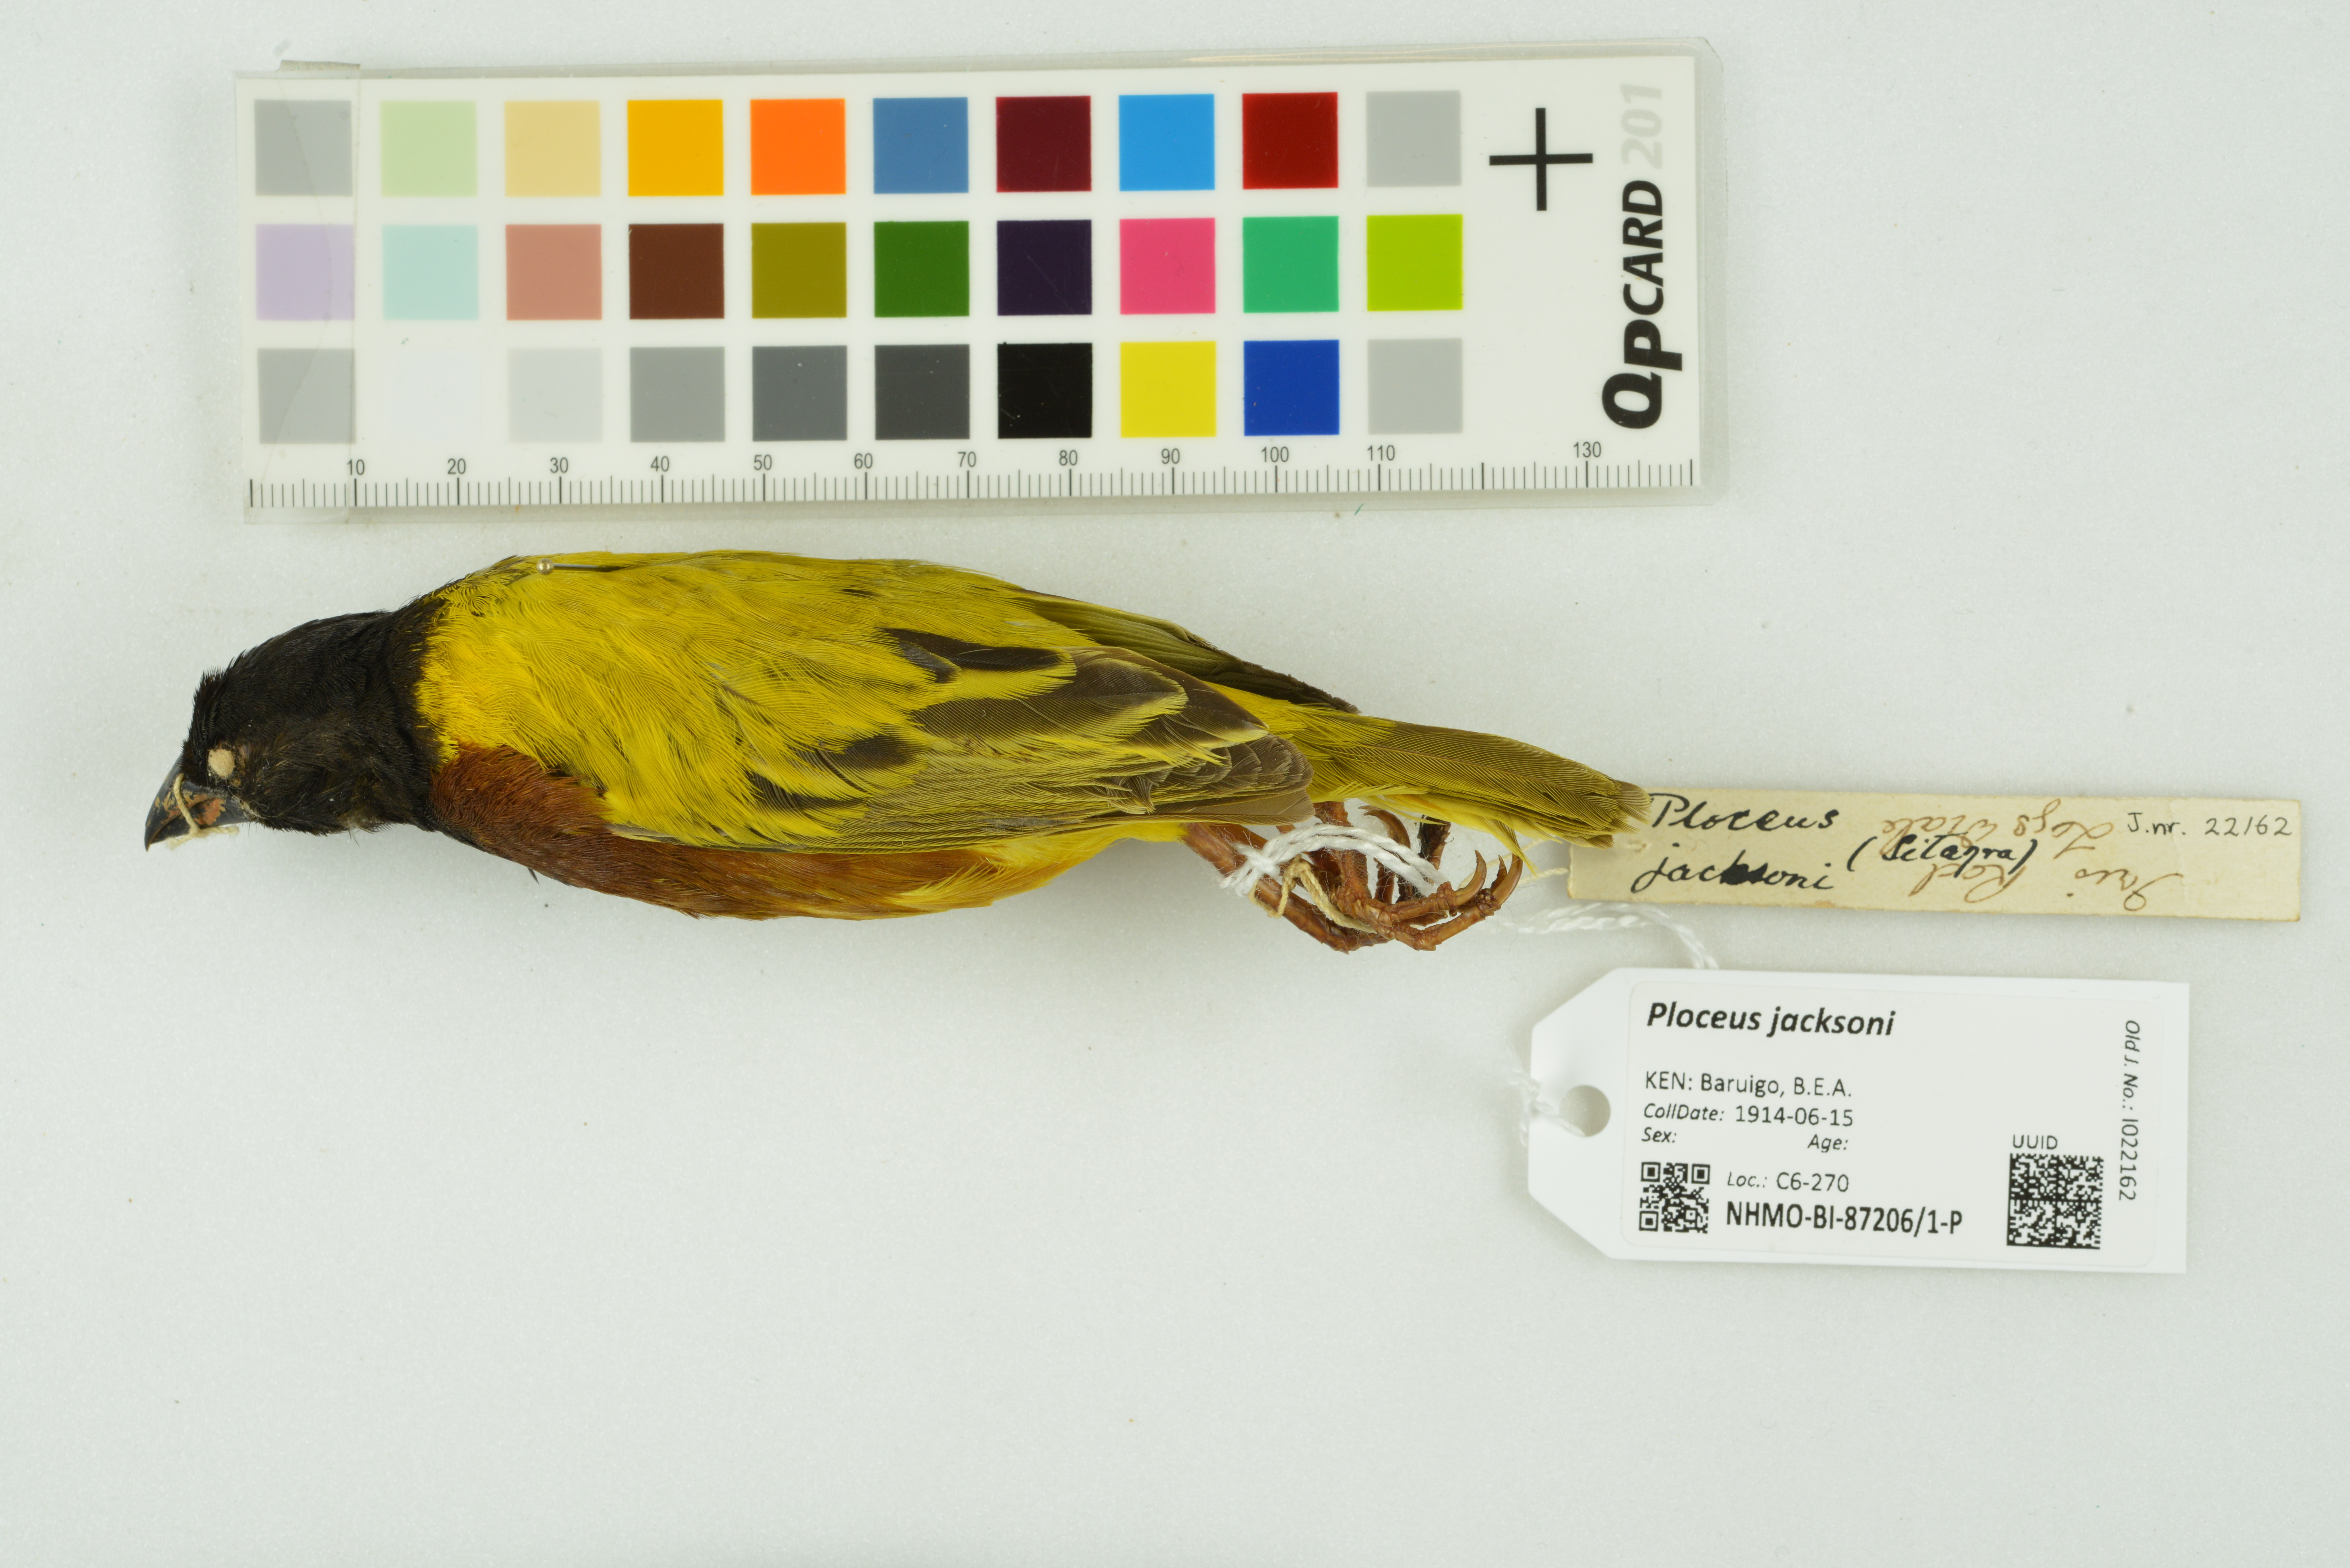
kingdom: Animalia
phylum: Chordata
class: Aves
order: Passeriformes
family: Ploceidae
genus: Ploceus
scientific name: Ploceus jacksoni
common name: Golden-backed weaver
